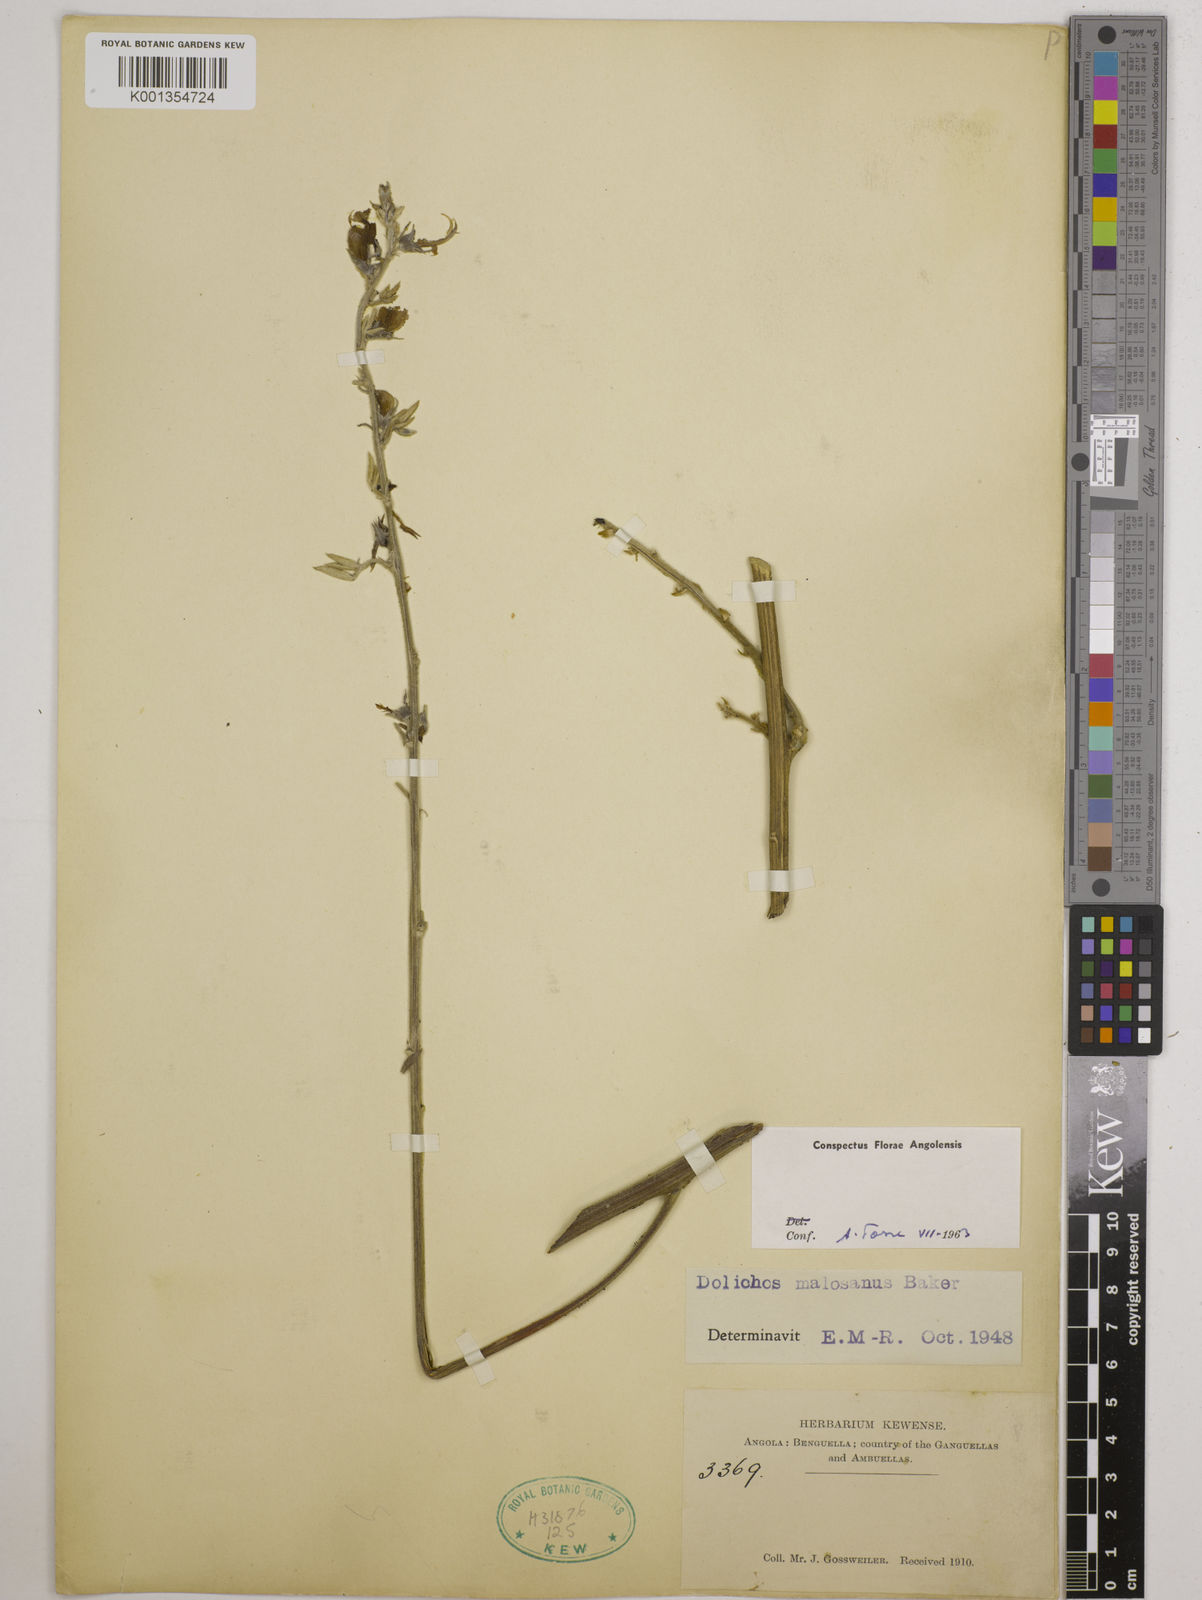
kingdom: Plantae
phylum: Tracheophyta
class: Magnoliopsida
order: Fabales
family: Fabaceae
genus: Dolichos
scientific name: Dolichos kilimandscharicus
